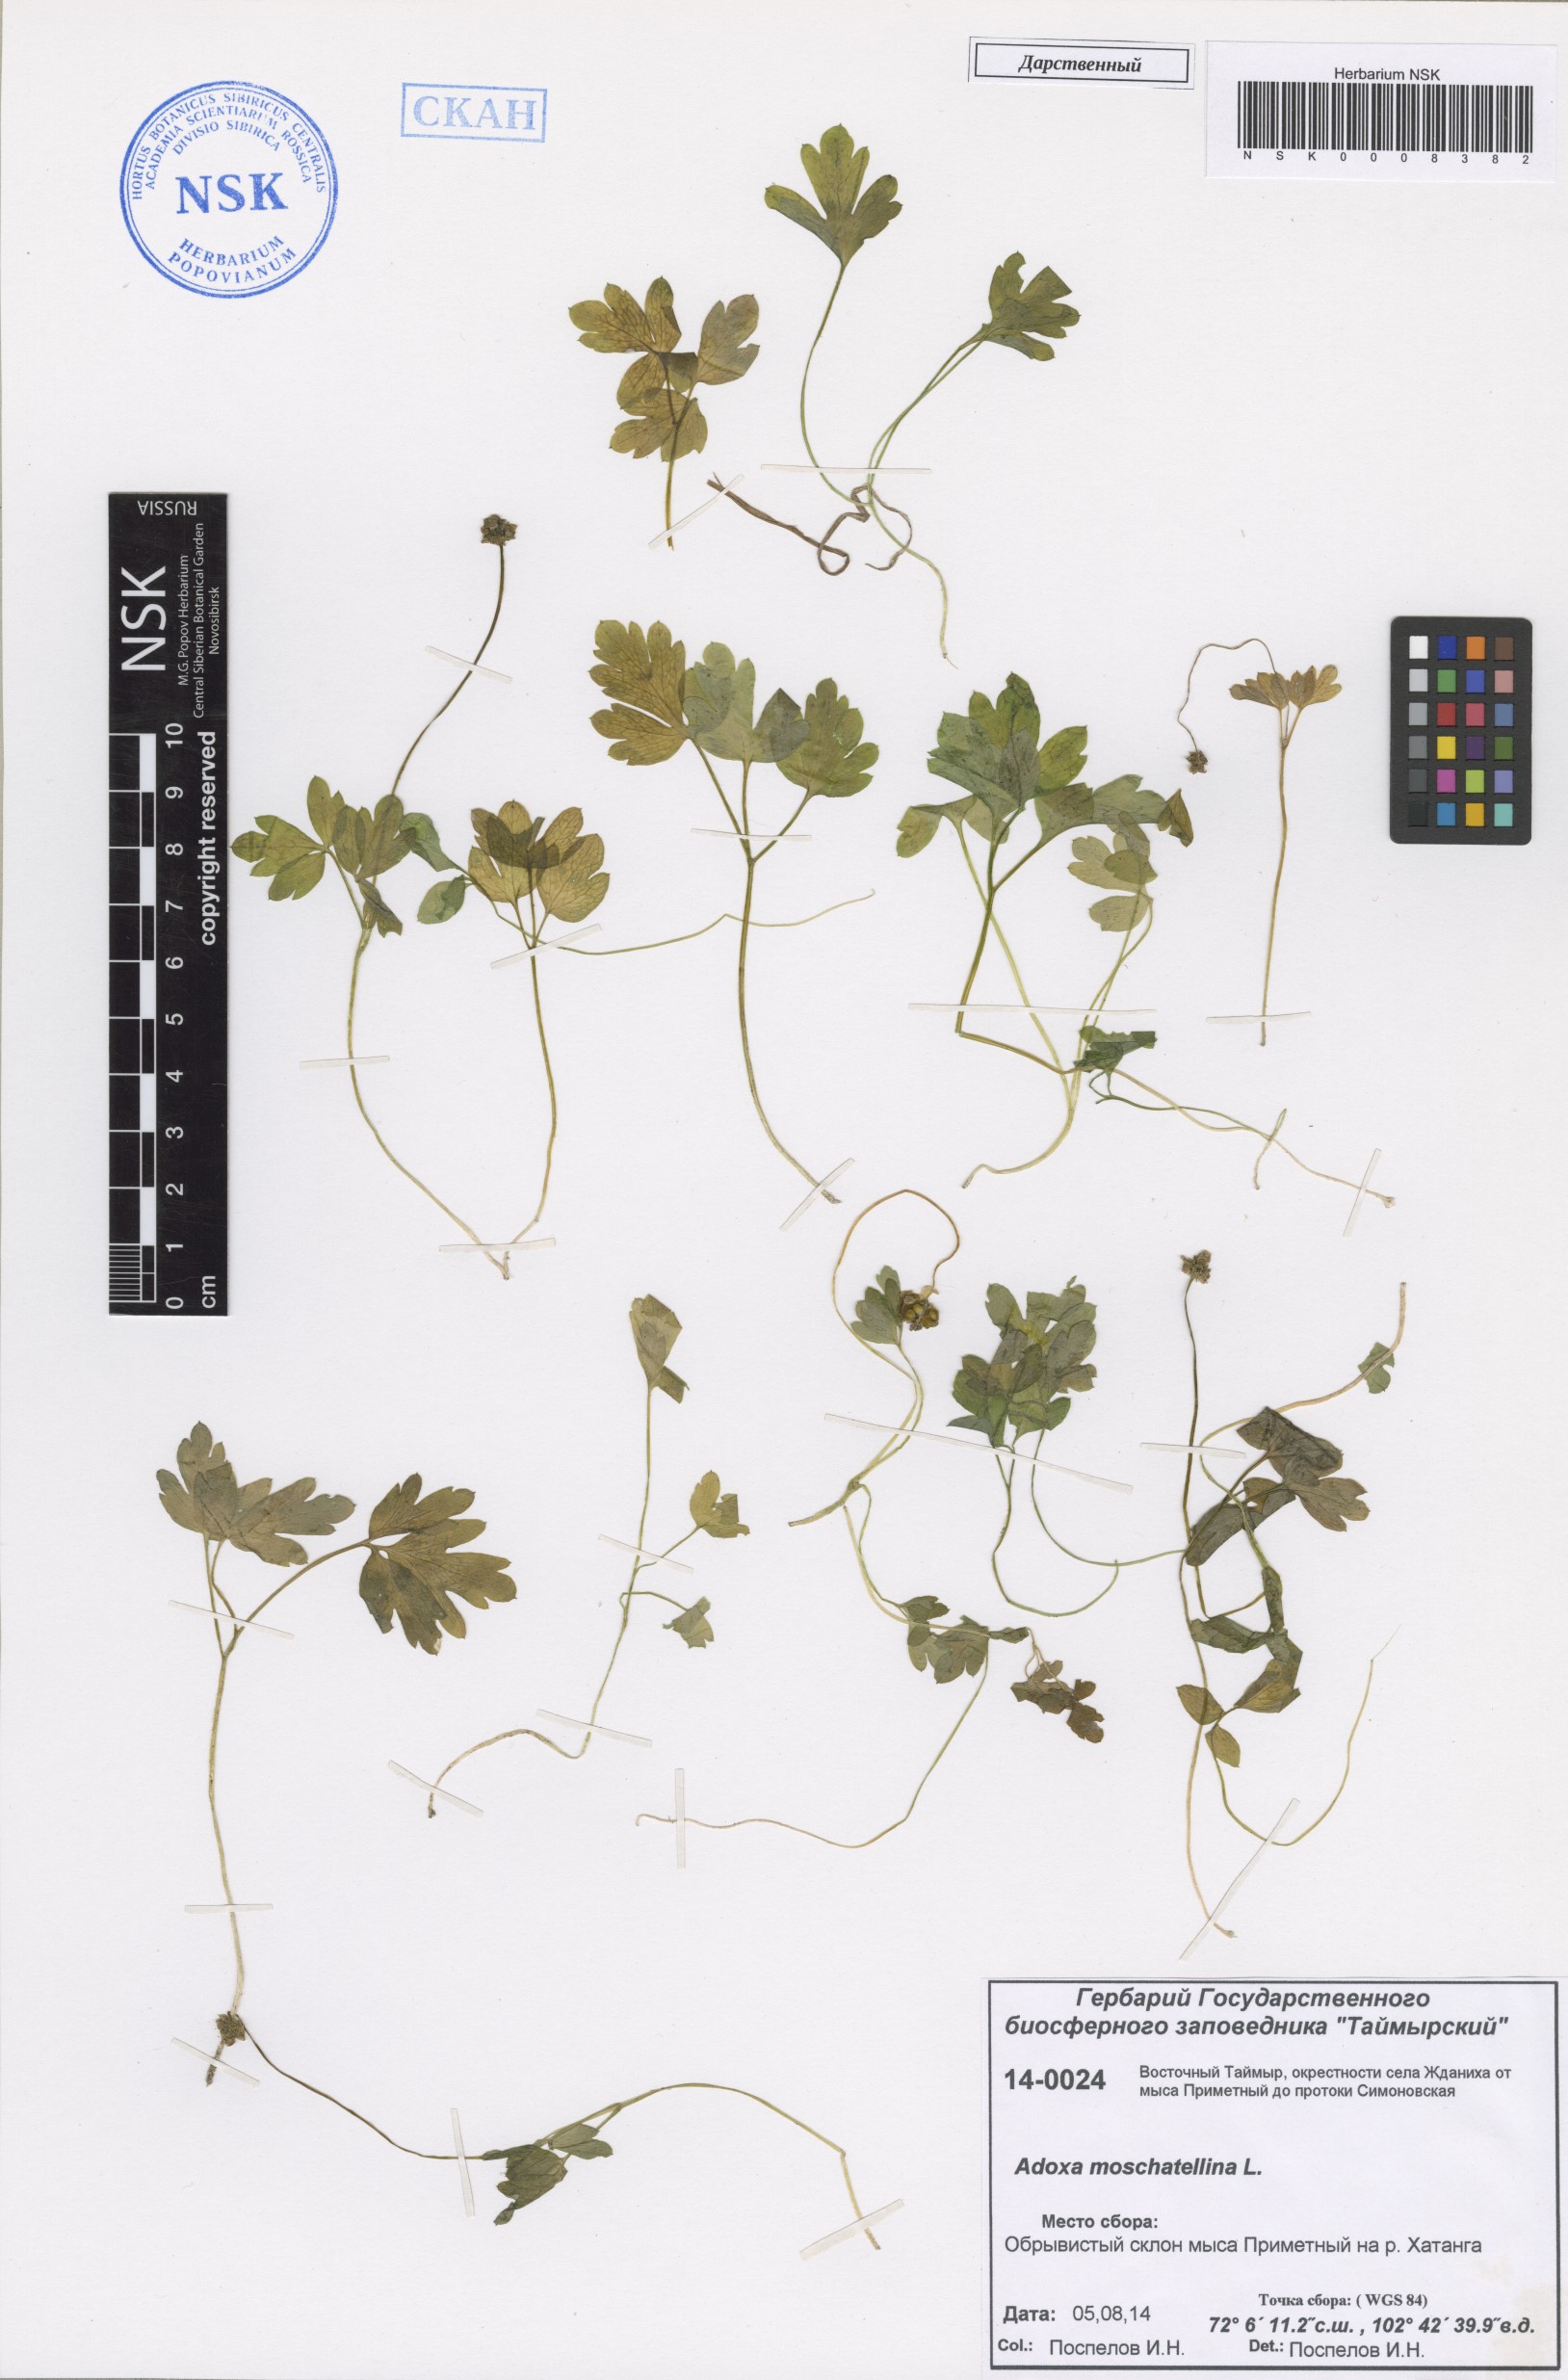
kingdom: Plantae
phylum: Tracheophyta
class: Magnoliopsida
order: Dipsacales
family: Viburnaceae
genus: Adoxa
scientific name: Adoxa moschatellina
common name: Moschatel
